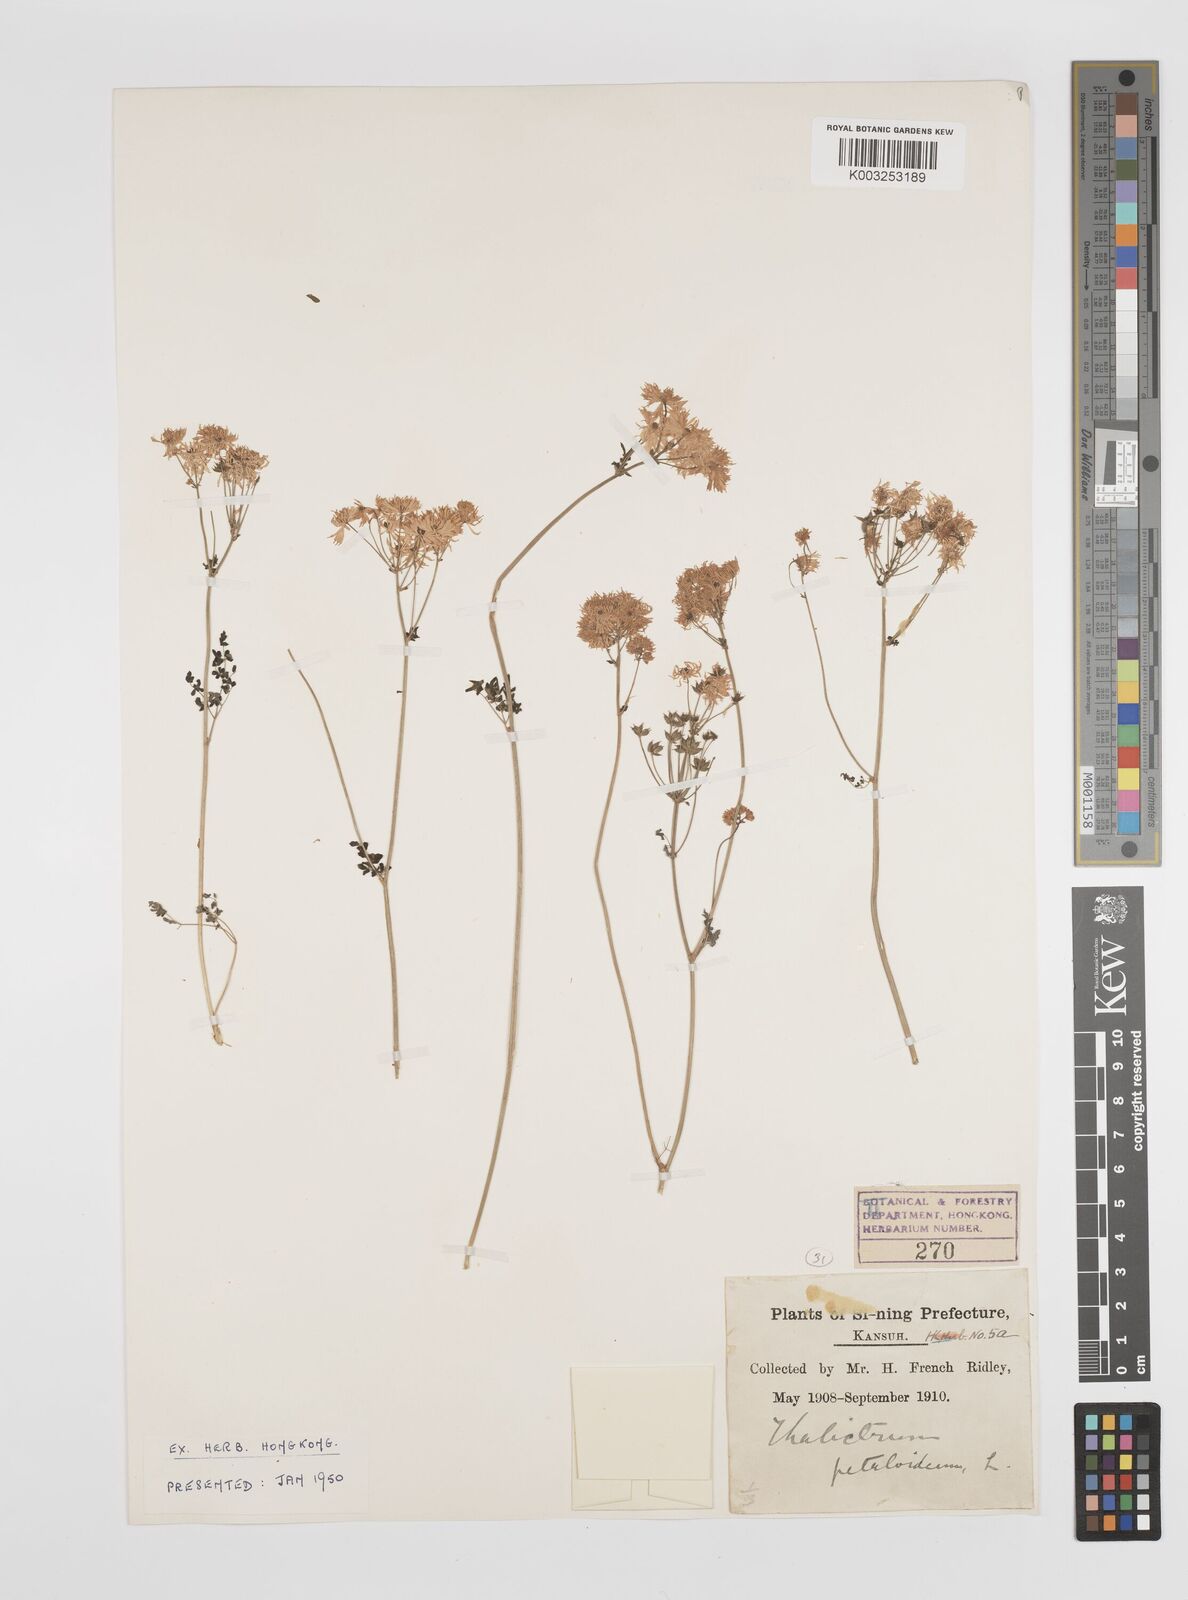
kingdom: Plantae
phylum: Tracheophyta
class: Magnoliopsida
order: Ranunculales
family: Ranunculaceae
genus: Thalictrum
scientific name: Thalictrum petaloideum
